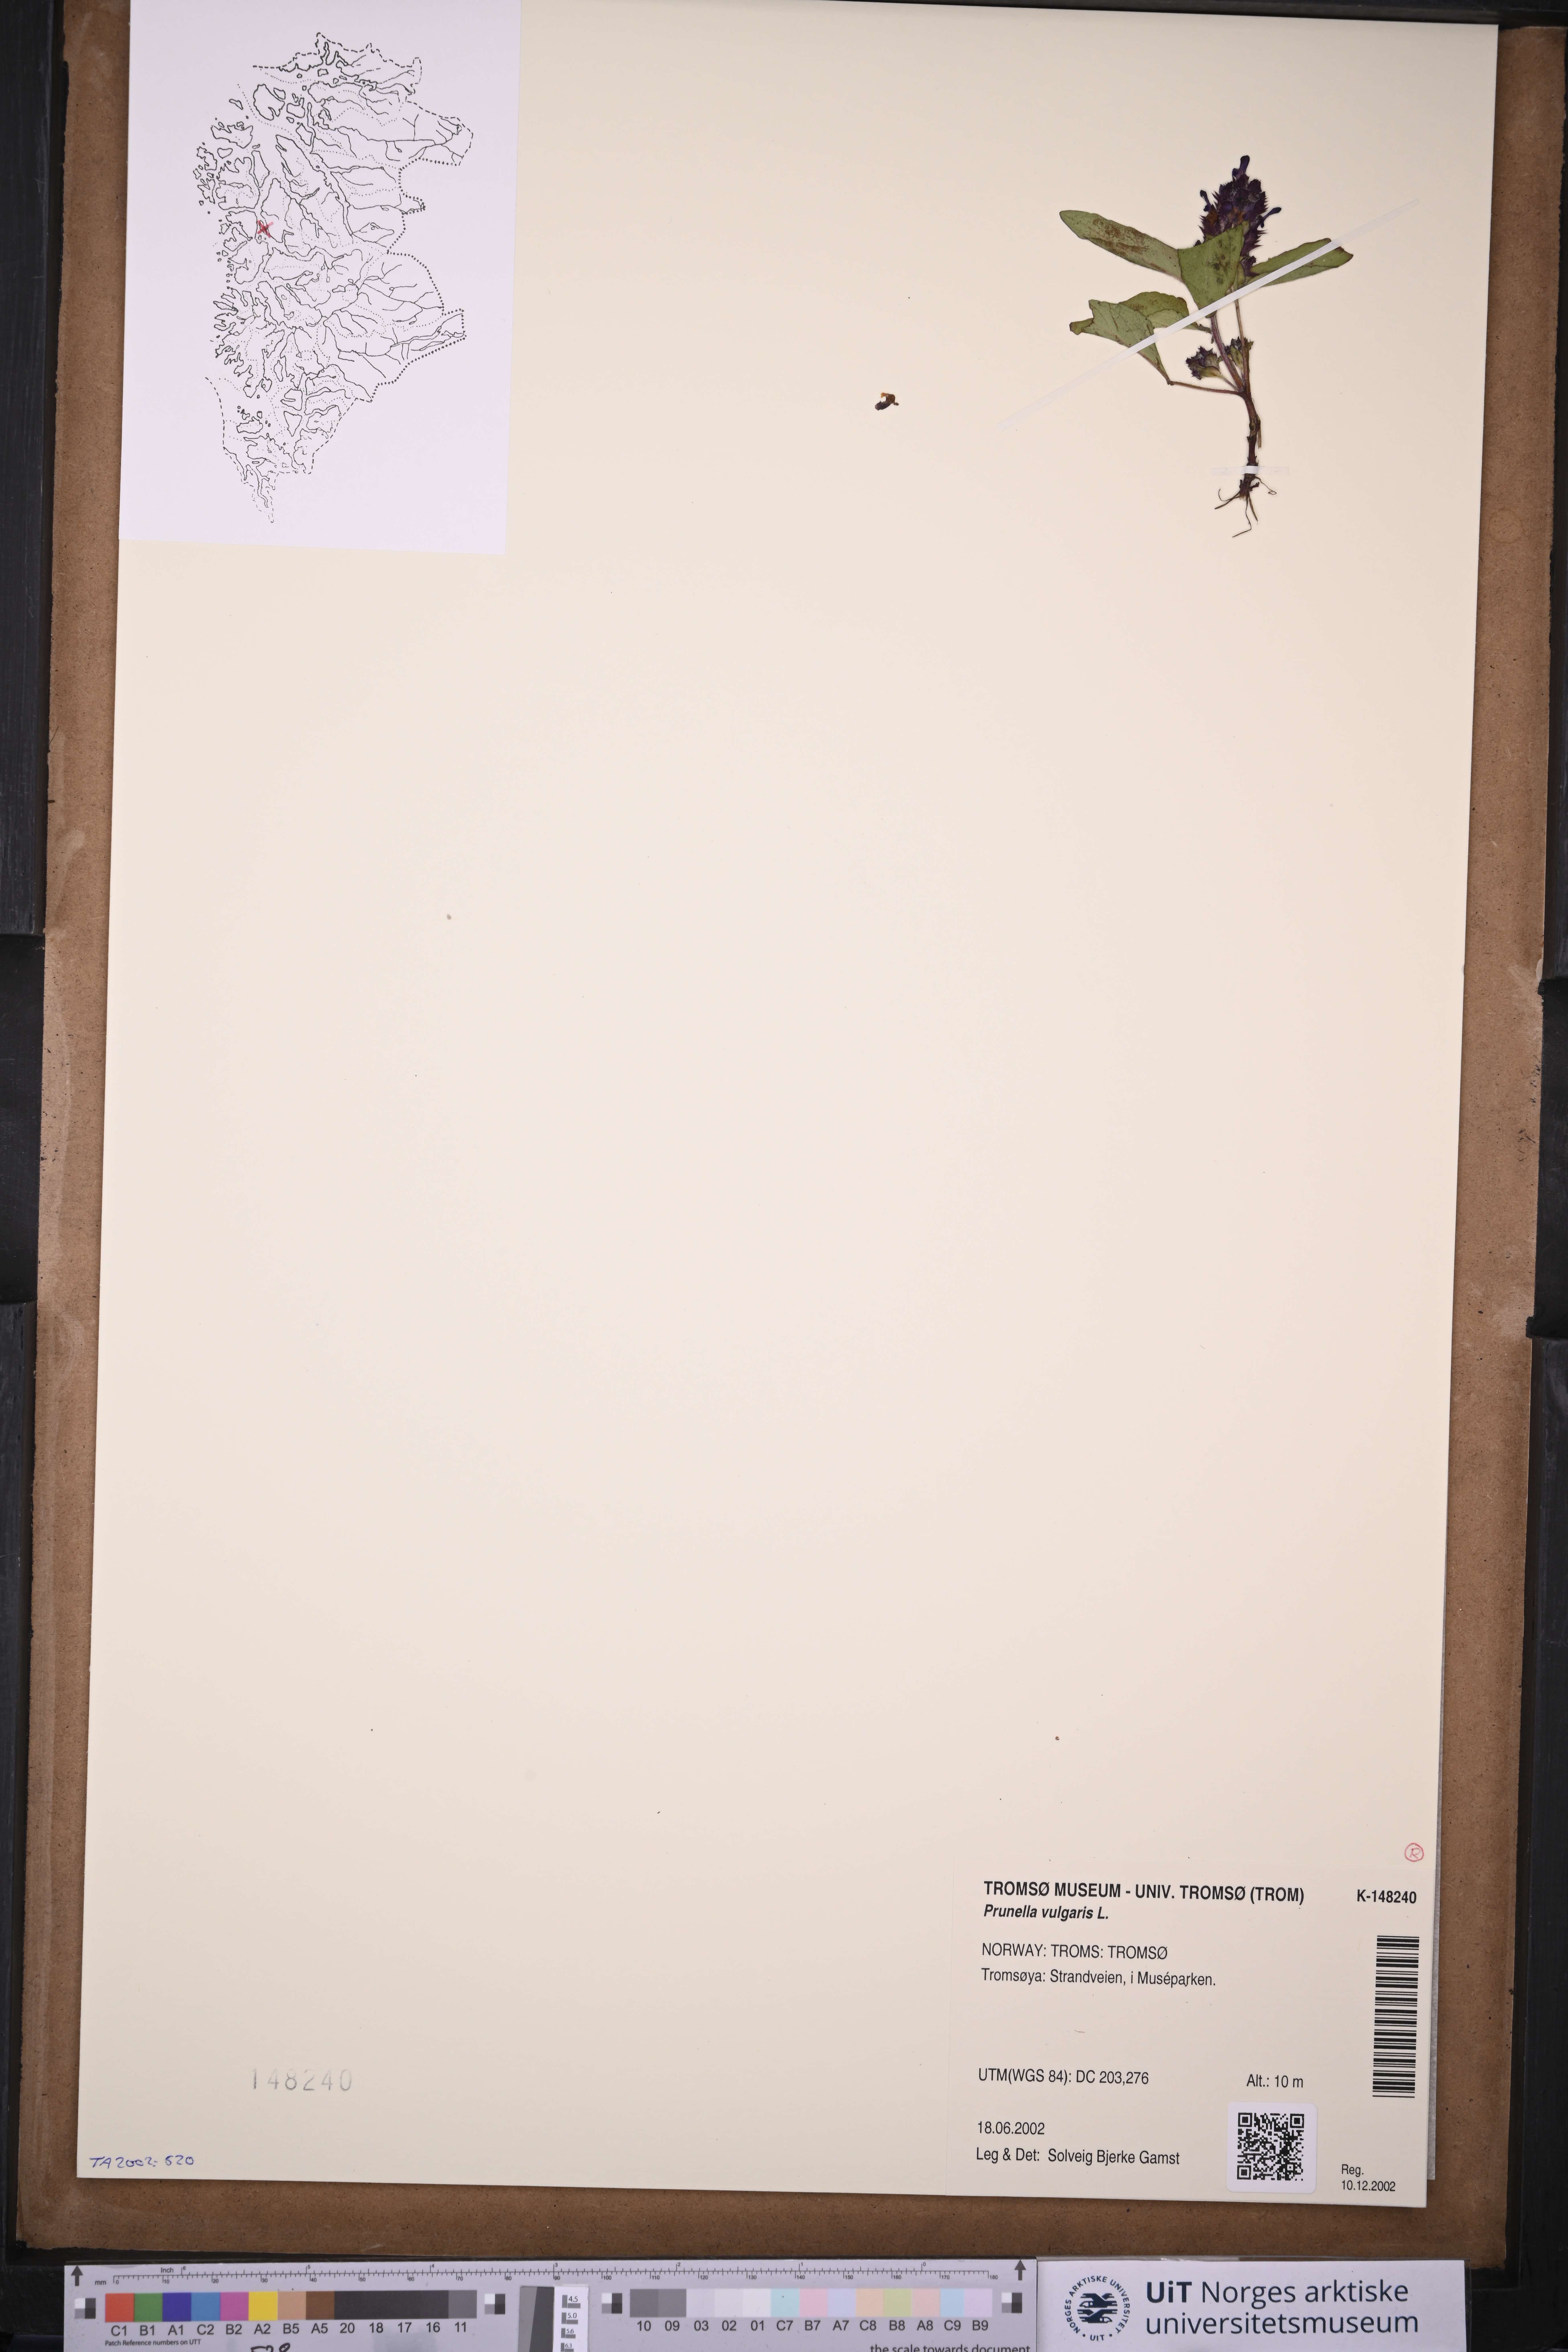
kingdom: Plantae
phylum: Tracheophyta
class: Magnoliopsida
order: Lamiales
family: Lamiaceae
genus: Prunella
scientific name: Prunella vulgaris
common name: Heal-all
